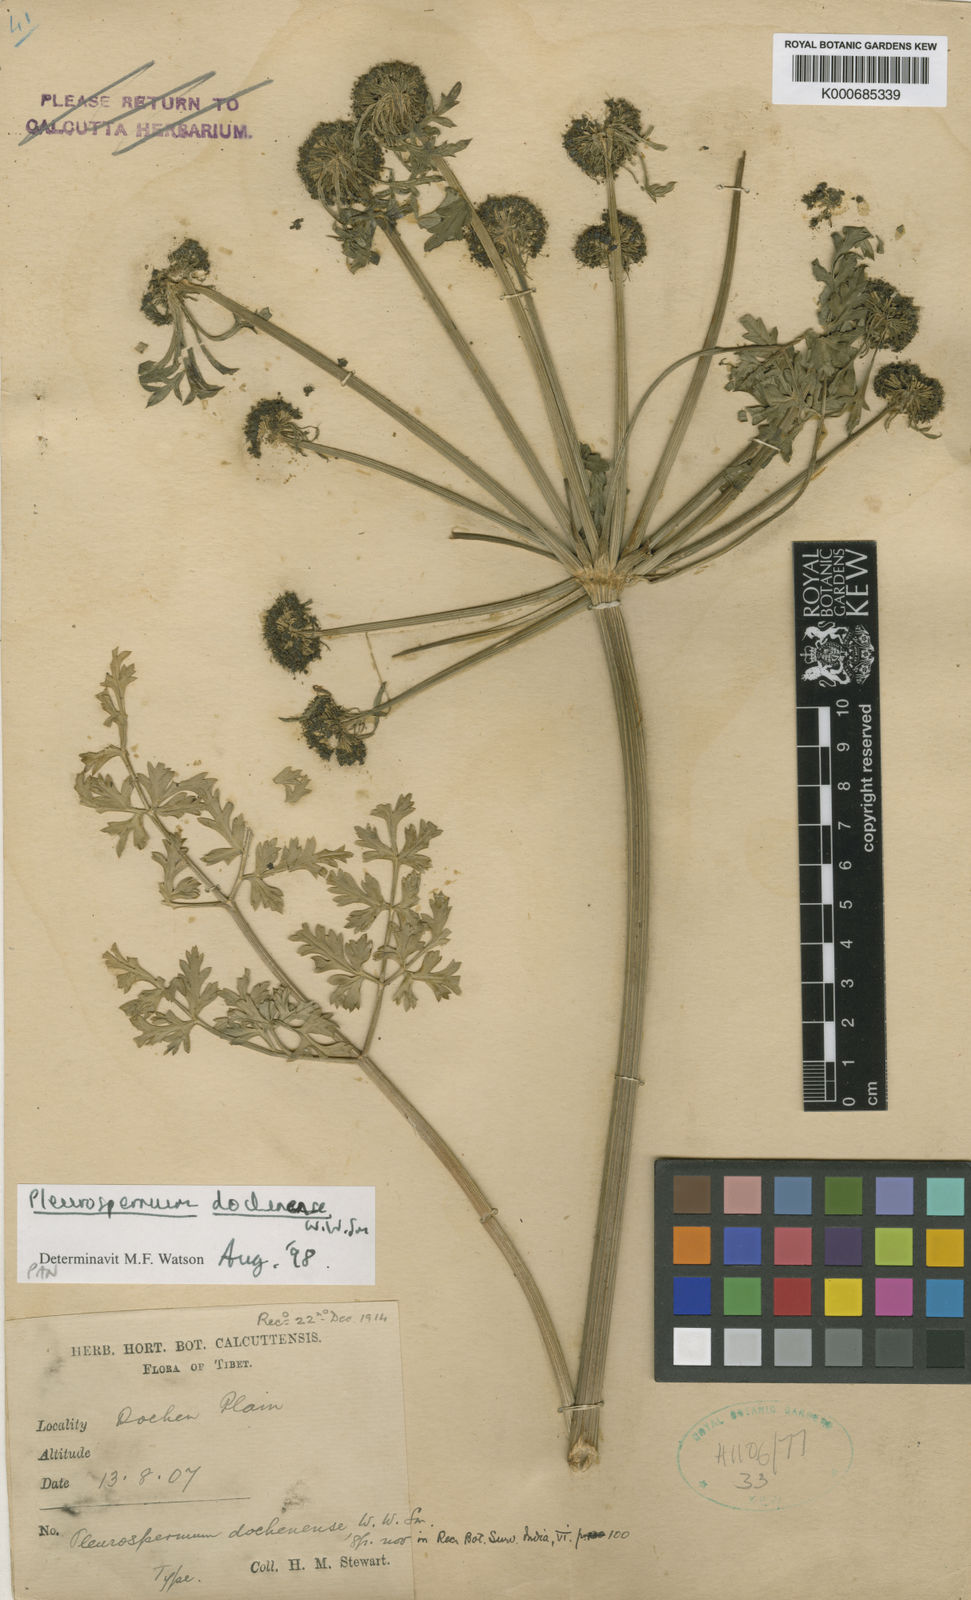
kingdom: Plantae
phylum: Tracheophyta
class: Magnoliopsida
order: Apiales
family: Apiaceae
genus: Pleurospermum
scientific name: Pleurospermum hookeri
